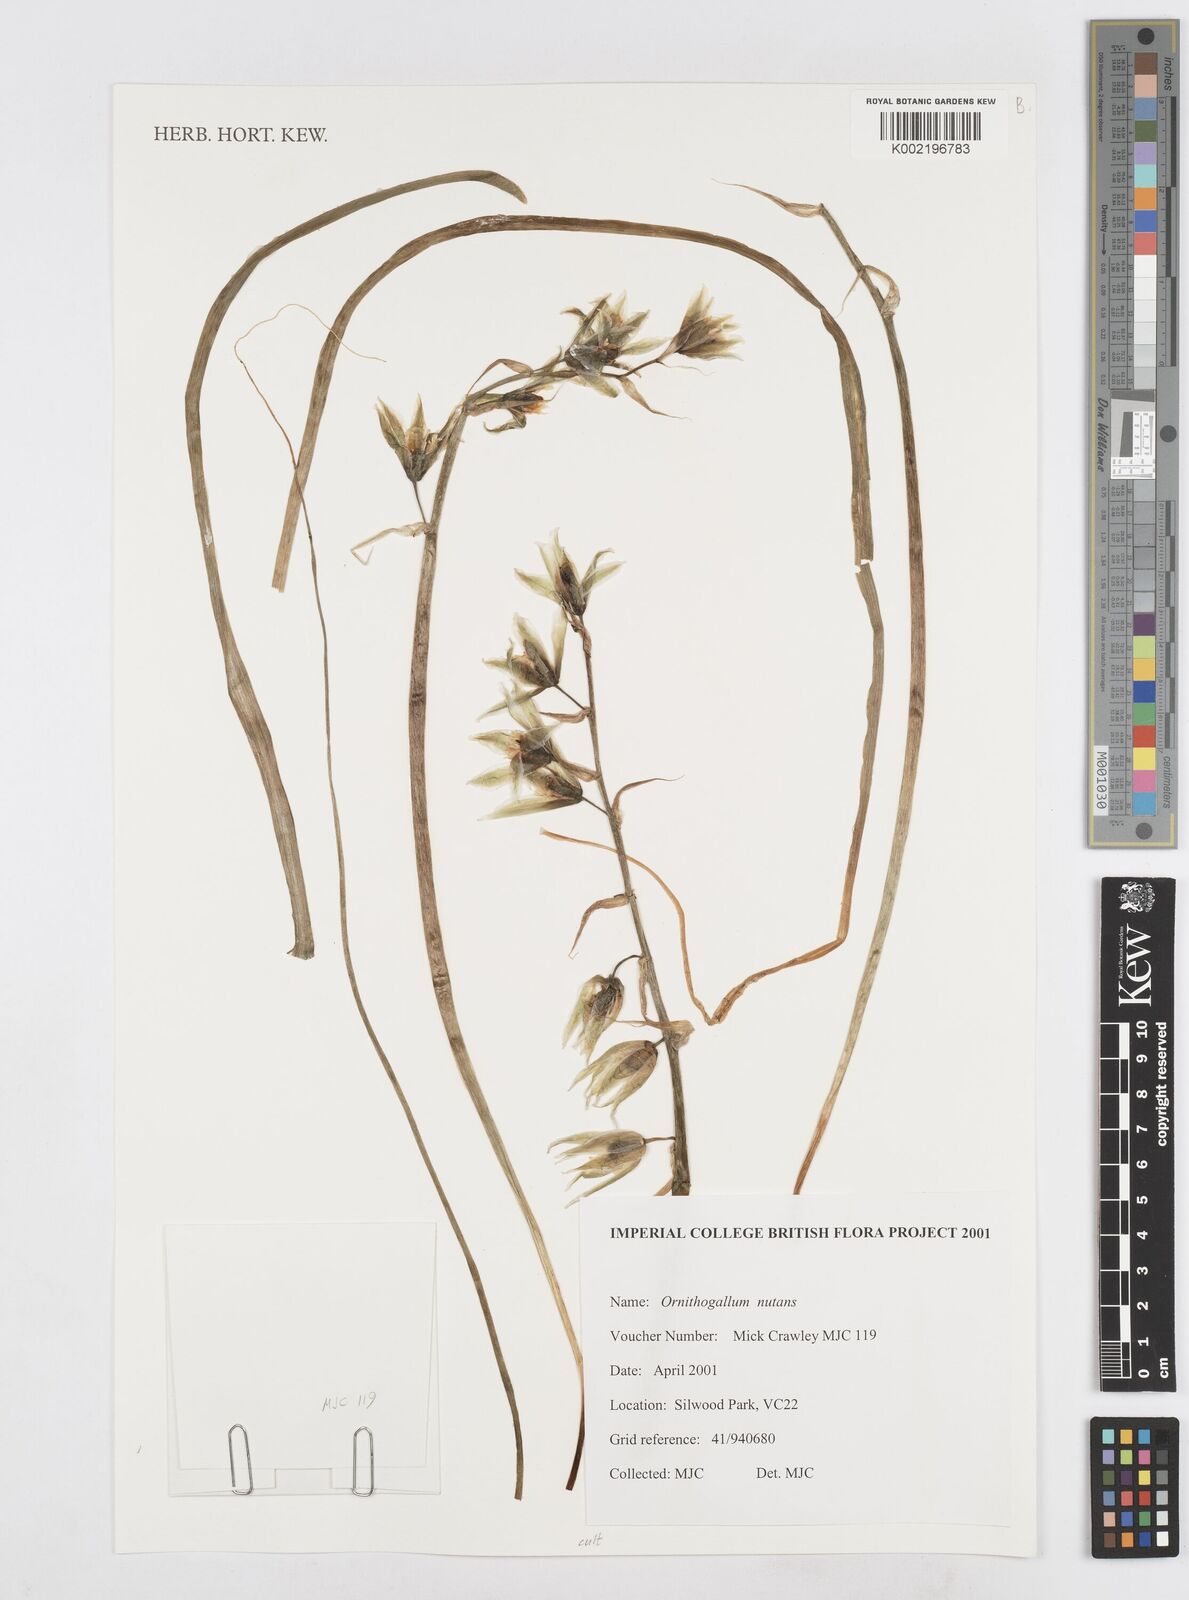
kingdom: Plantae
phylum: Tracheophyta
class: Liliopsida
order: Asparagales
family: Asparagaceae
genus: Ornithogalum
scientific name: Ornithogalum nutans
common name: Drooping star-of-bethlehem
